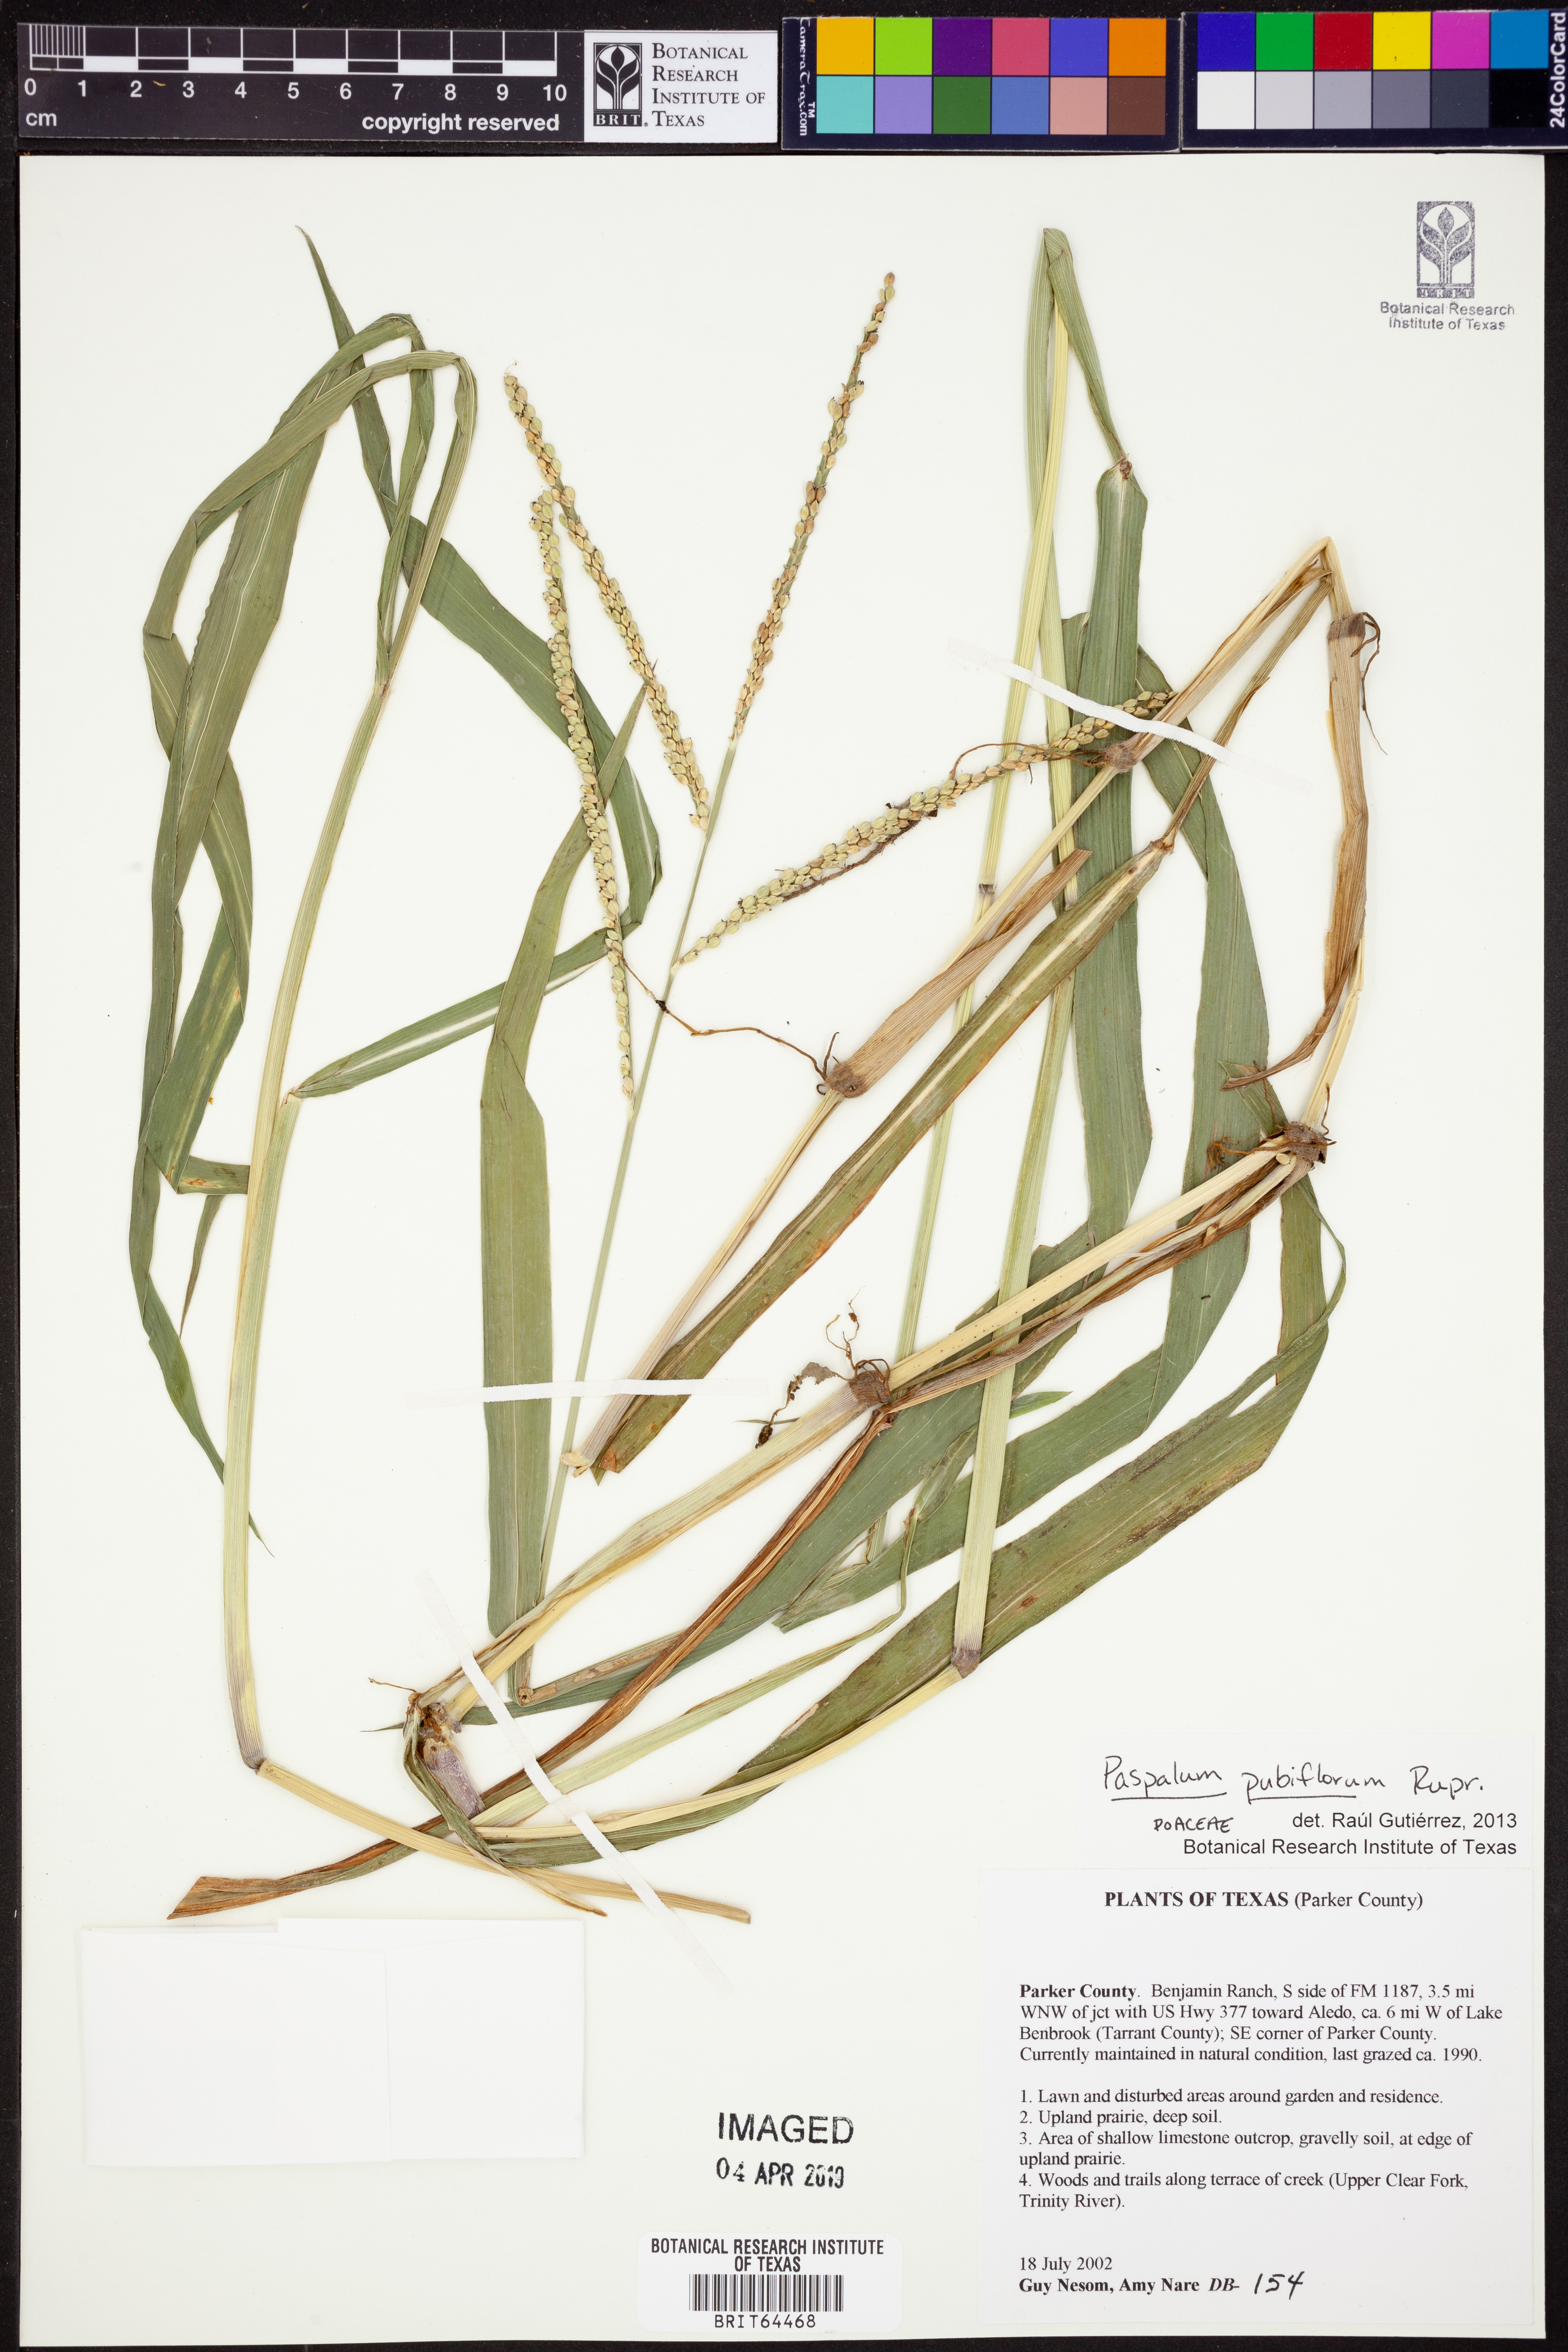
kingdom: Plantae
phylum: Tracheophyta
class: Liliopsida
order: Poales
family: Poaceae
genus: Paspalum
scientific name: Paspalum pubiflorum
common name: Hairy-seed paspalum
